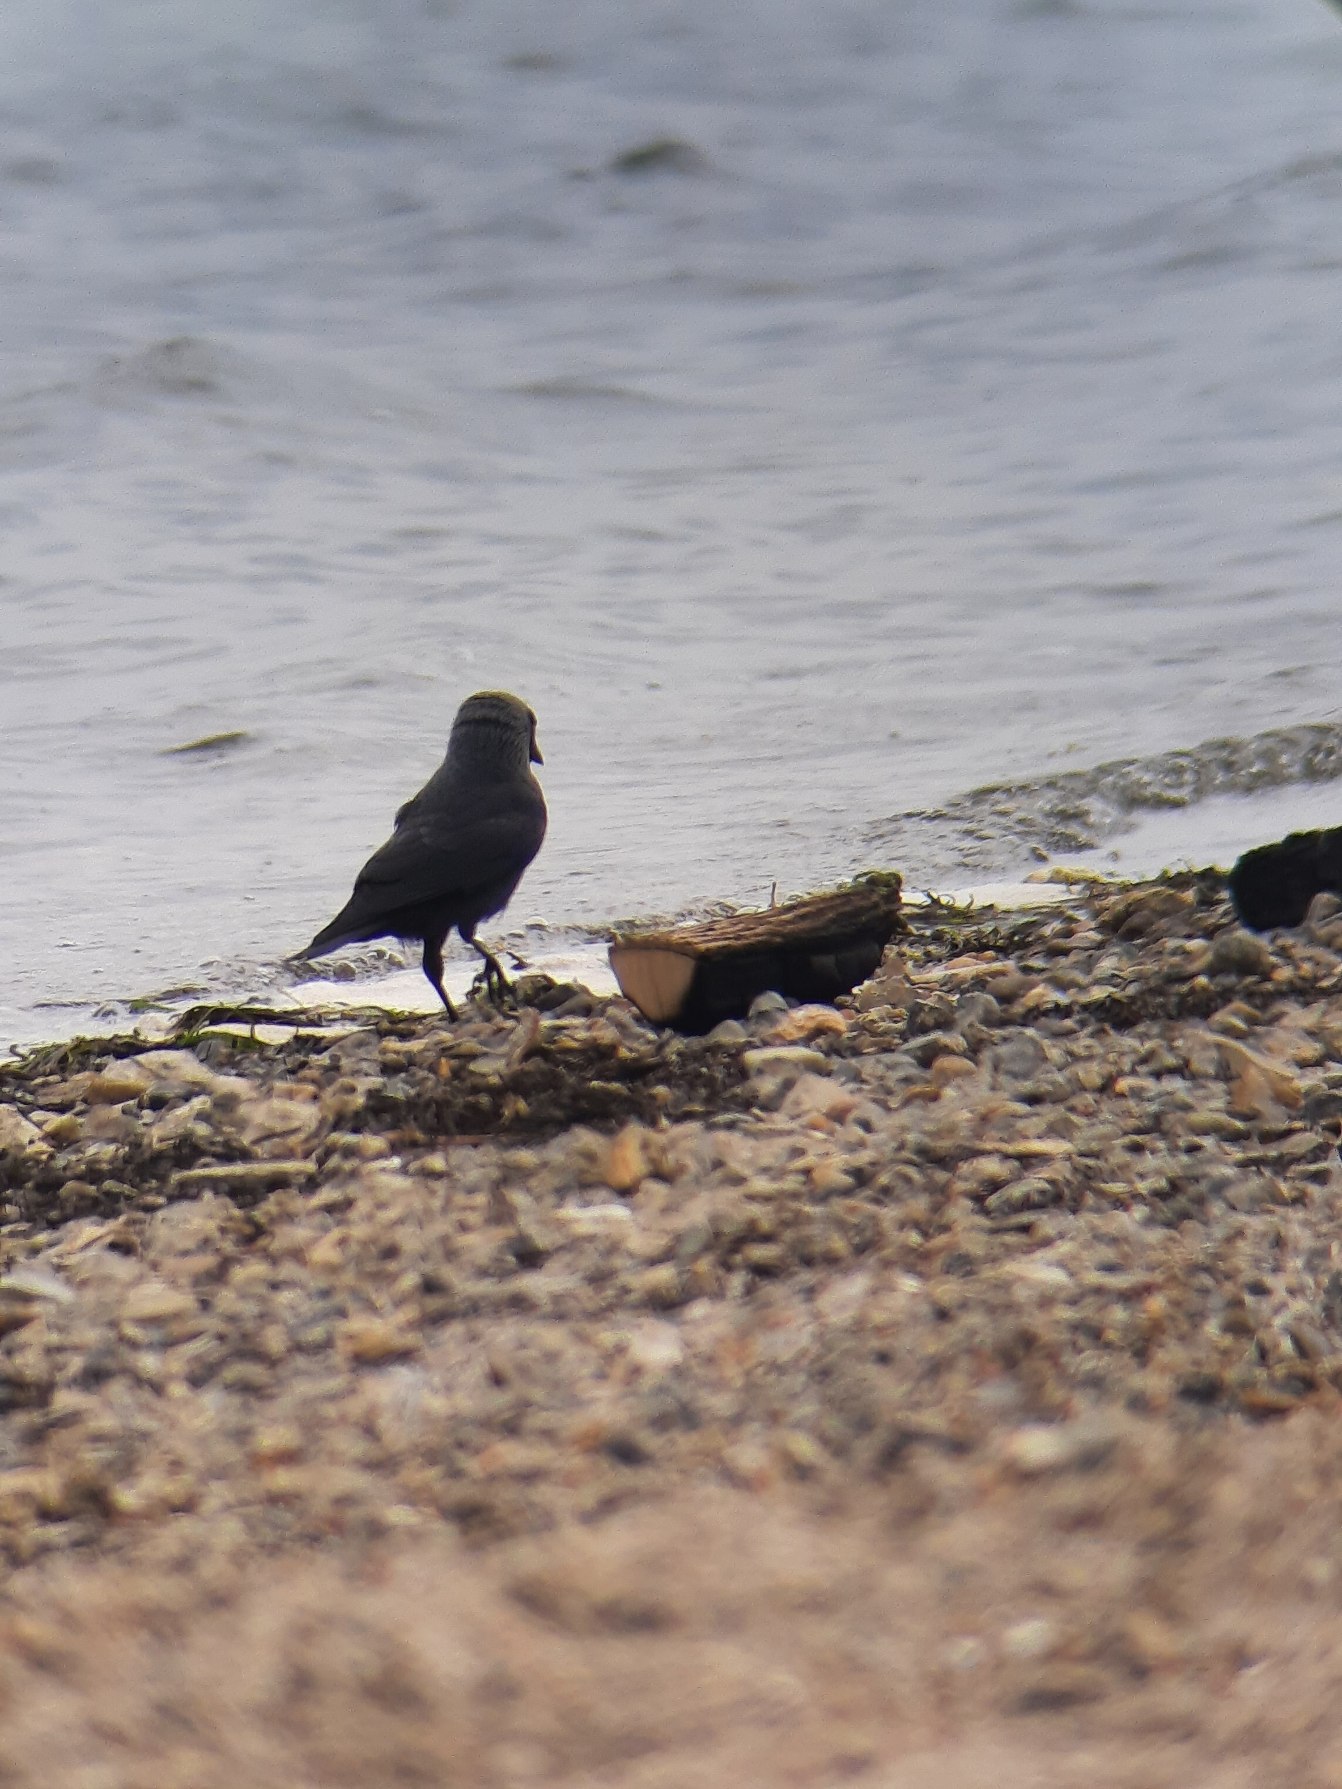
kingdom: Animalia
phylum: Chordata
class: Aves
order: Passeriformes
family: Corvidae
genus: Coloeus
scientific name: Coloeus monedula
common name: Allike
